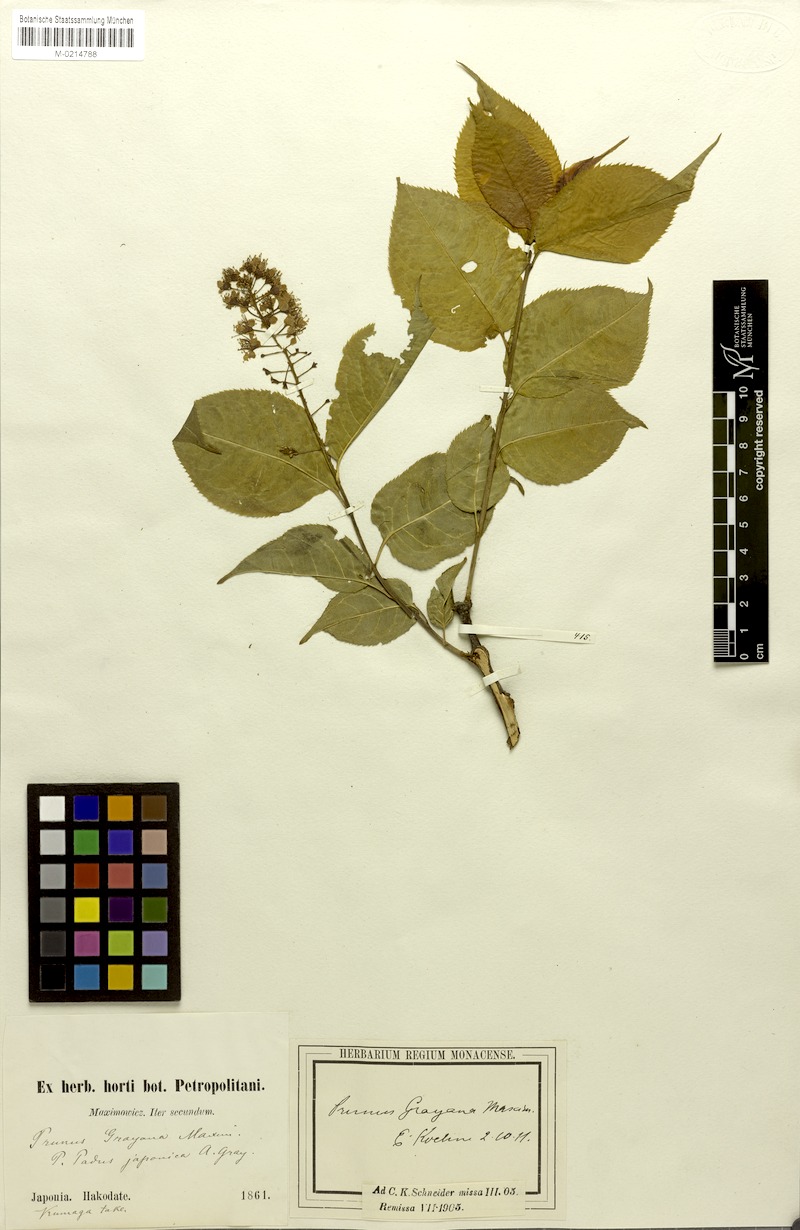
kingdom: Plantae
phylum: Tracheophyta
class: Magnoliopsida
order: Rosales
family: Rosaceae
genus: Prunus
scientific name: Prunus grayana
